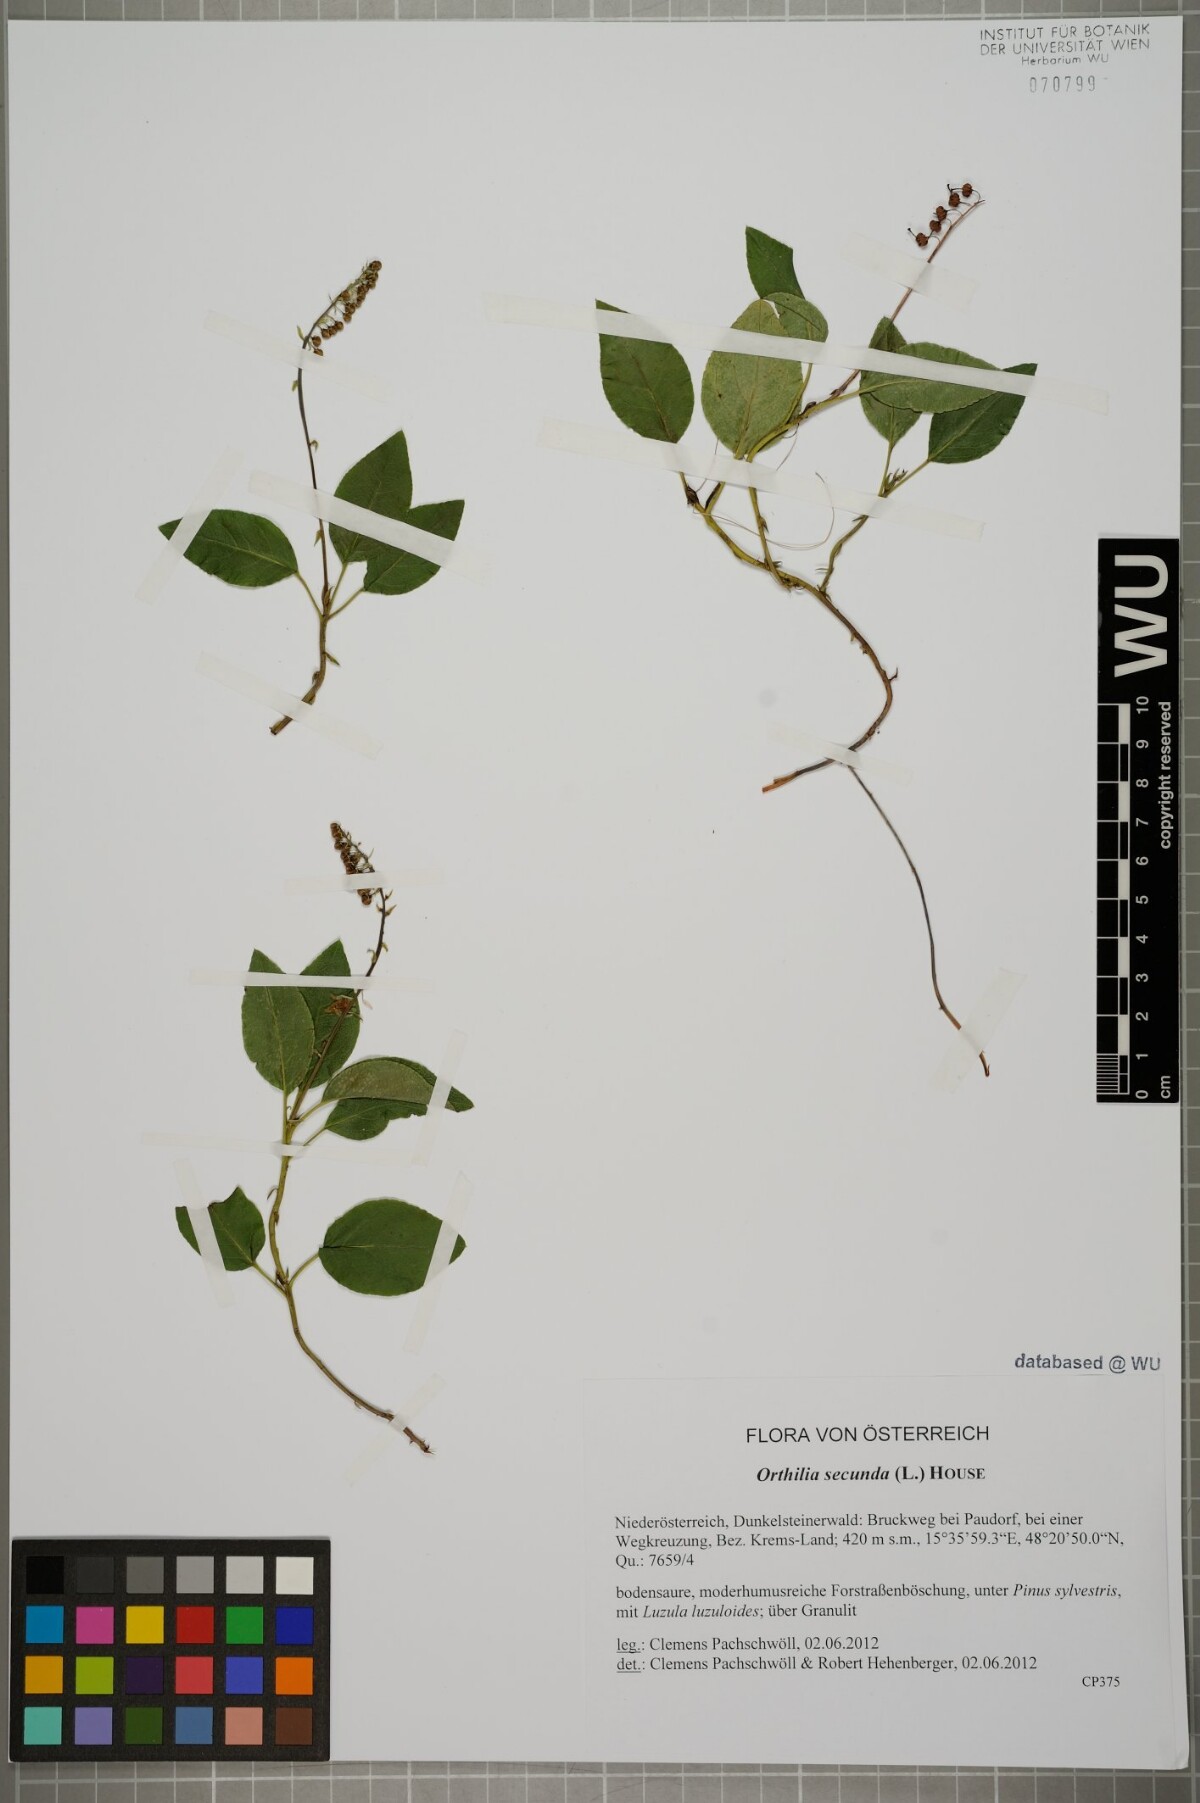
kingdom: Plantae
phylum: Tracheophyta
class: Magnoliopsida
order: Ericales
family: Ericaceae
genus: Orthilia
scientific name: Orthilia secunda
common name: One-sided orthilia
